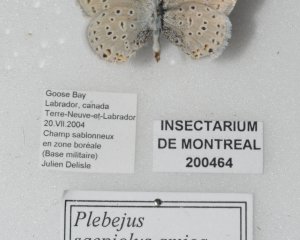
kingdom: Animalia
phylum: Arthropoda
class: Insecta
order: Lepidoptera
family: Lycaenidae
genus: Plebejus
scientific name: Plebejus saepiolus
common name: Greenish Blue
